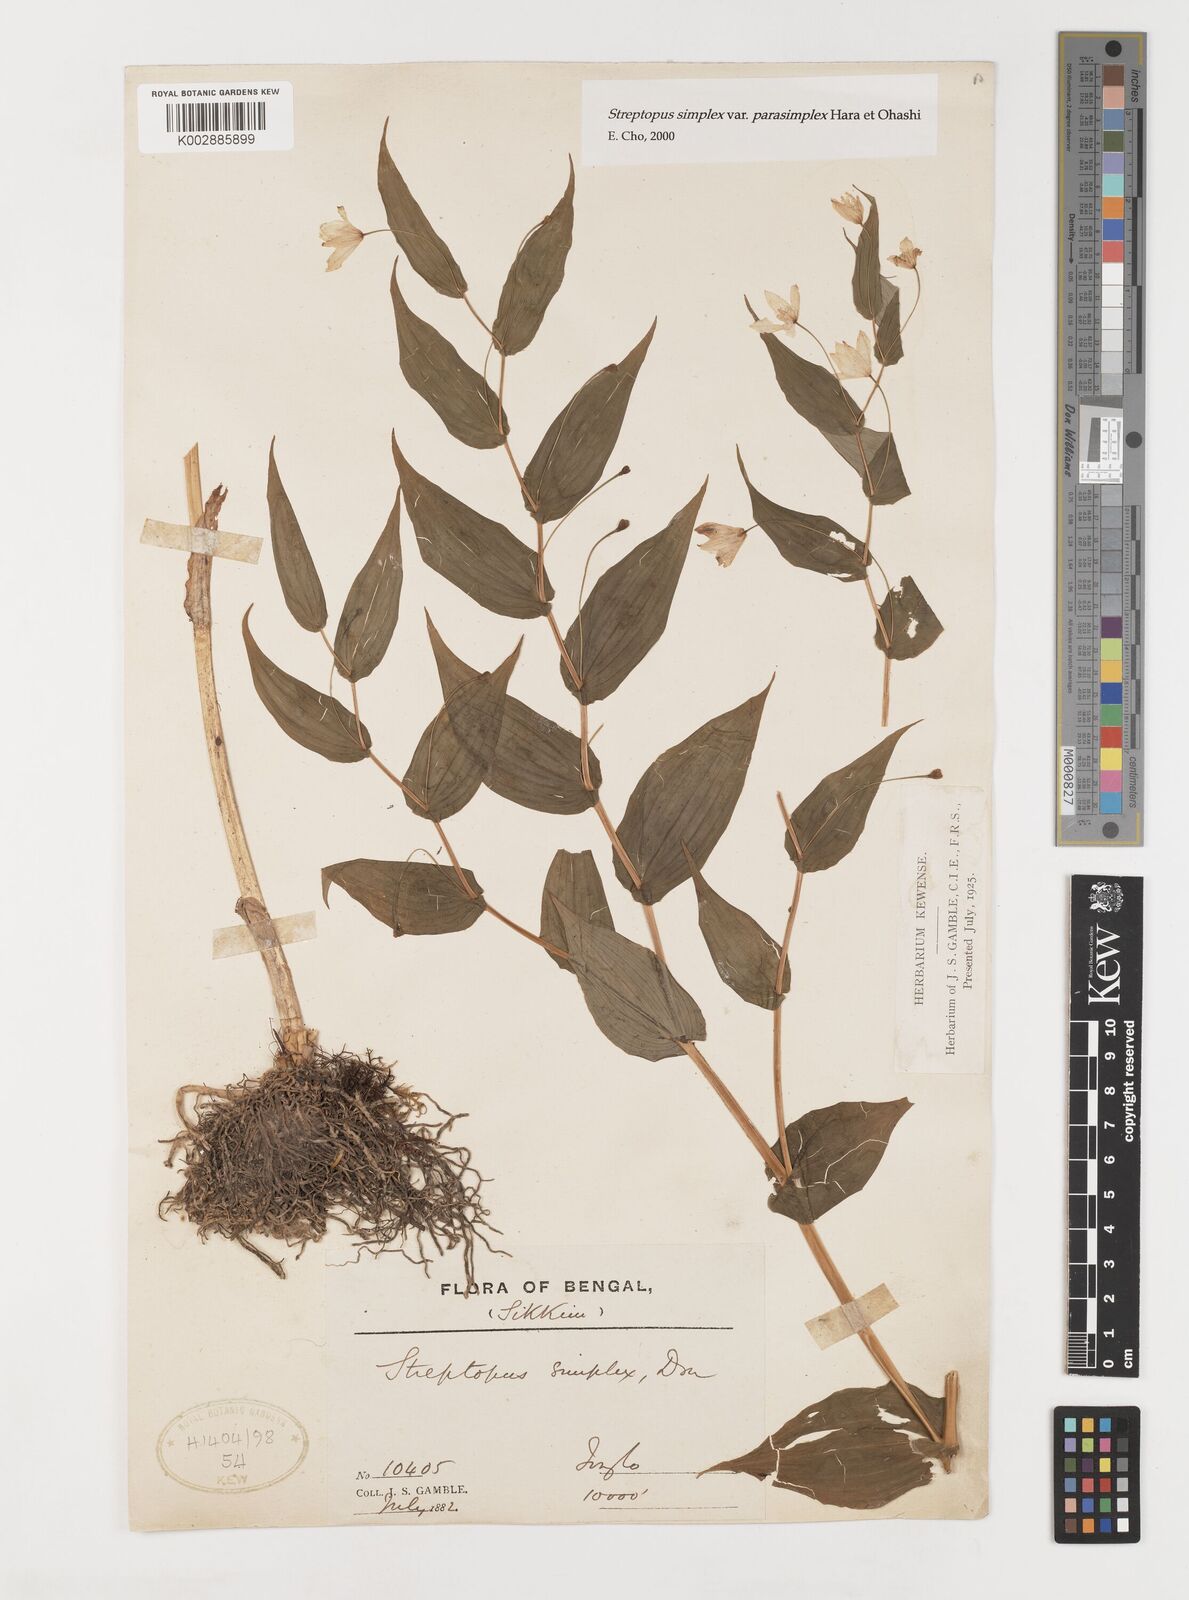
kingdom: Plantae
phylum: Tracheophyta
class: Liliopsida
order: Liliales
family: Liliaceae
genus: Streptopus
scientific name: Streptopus simplex
